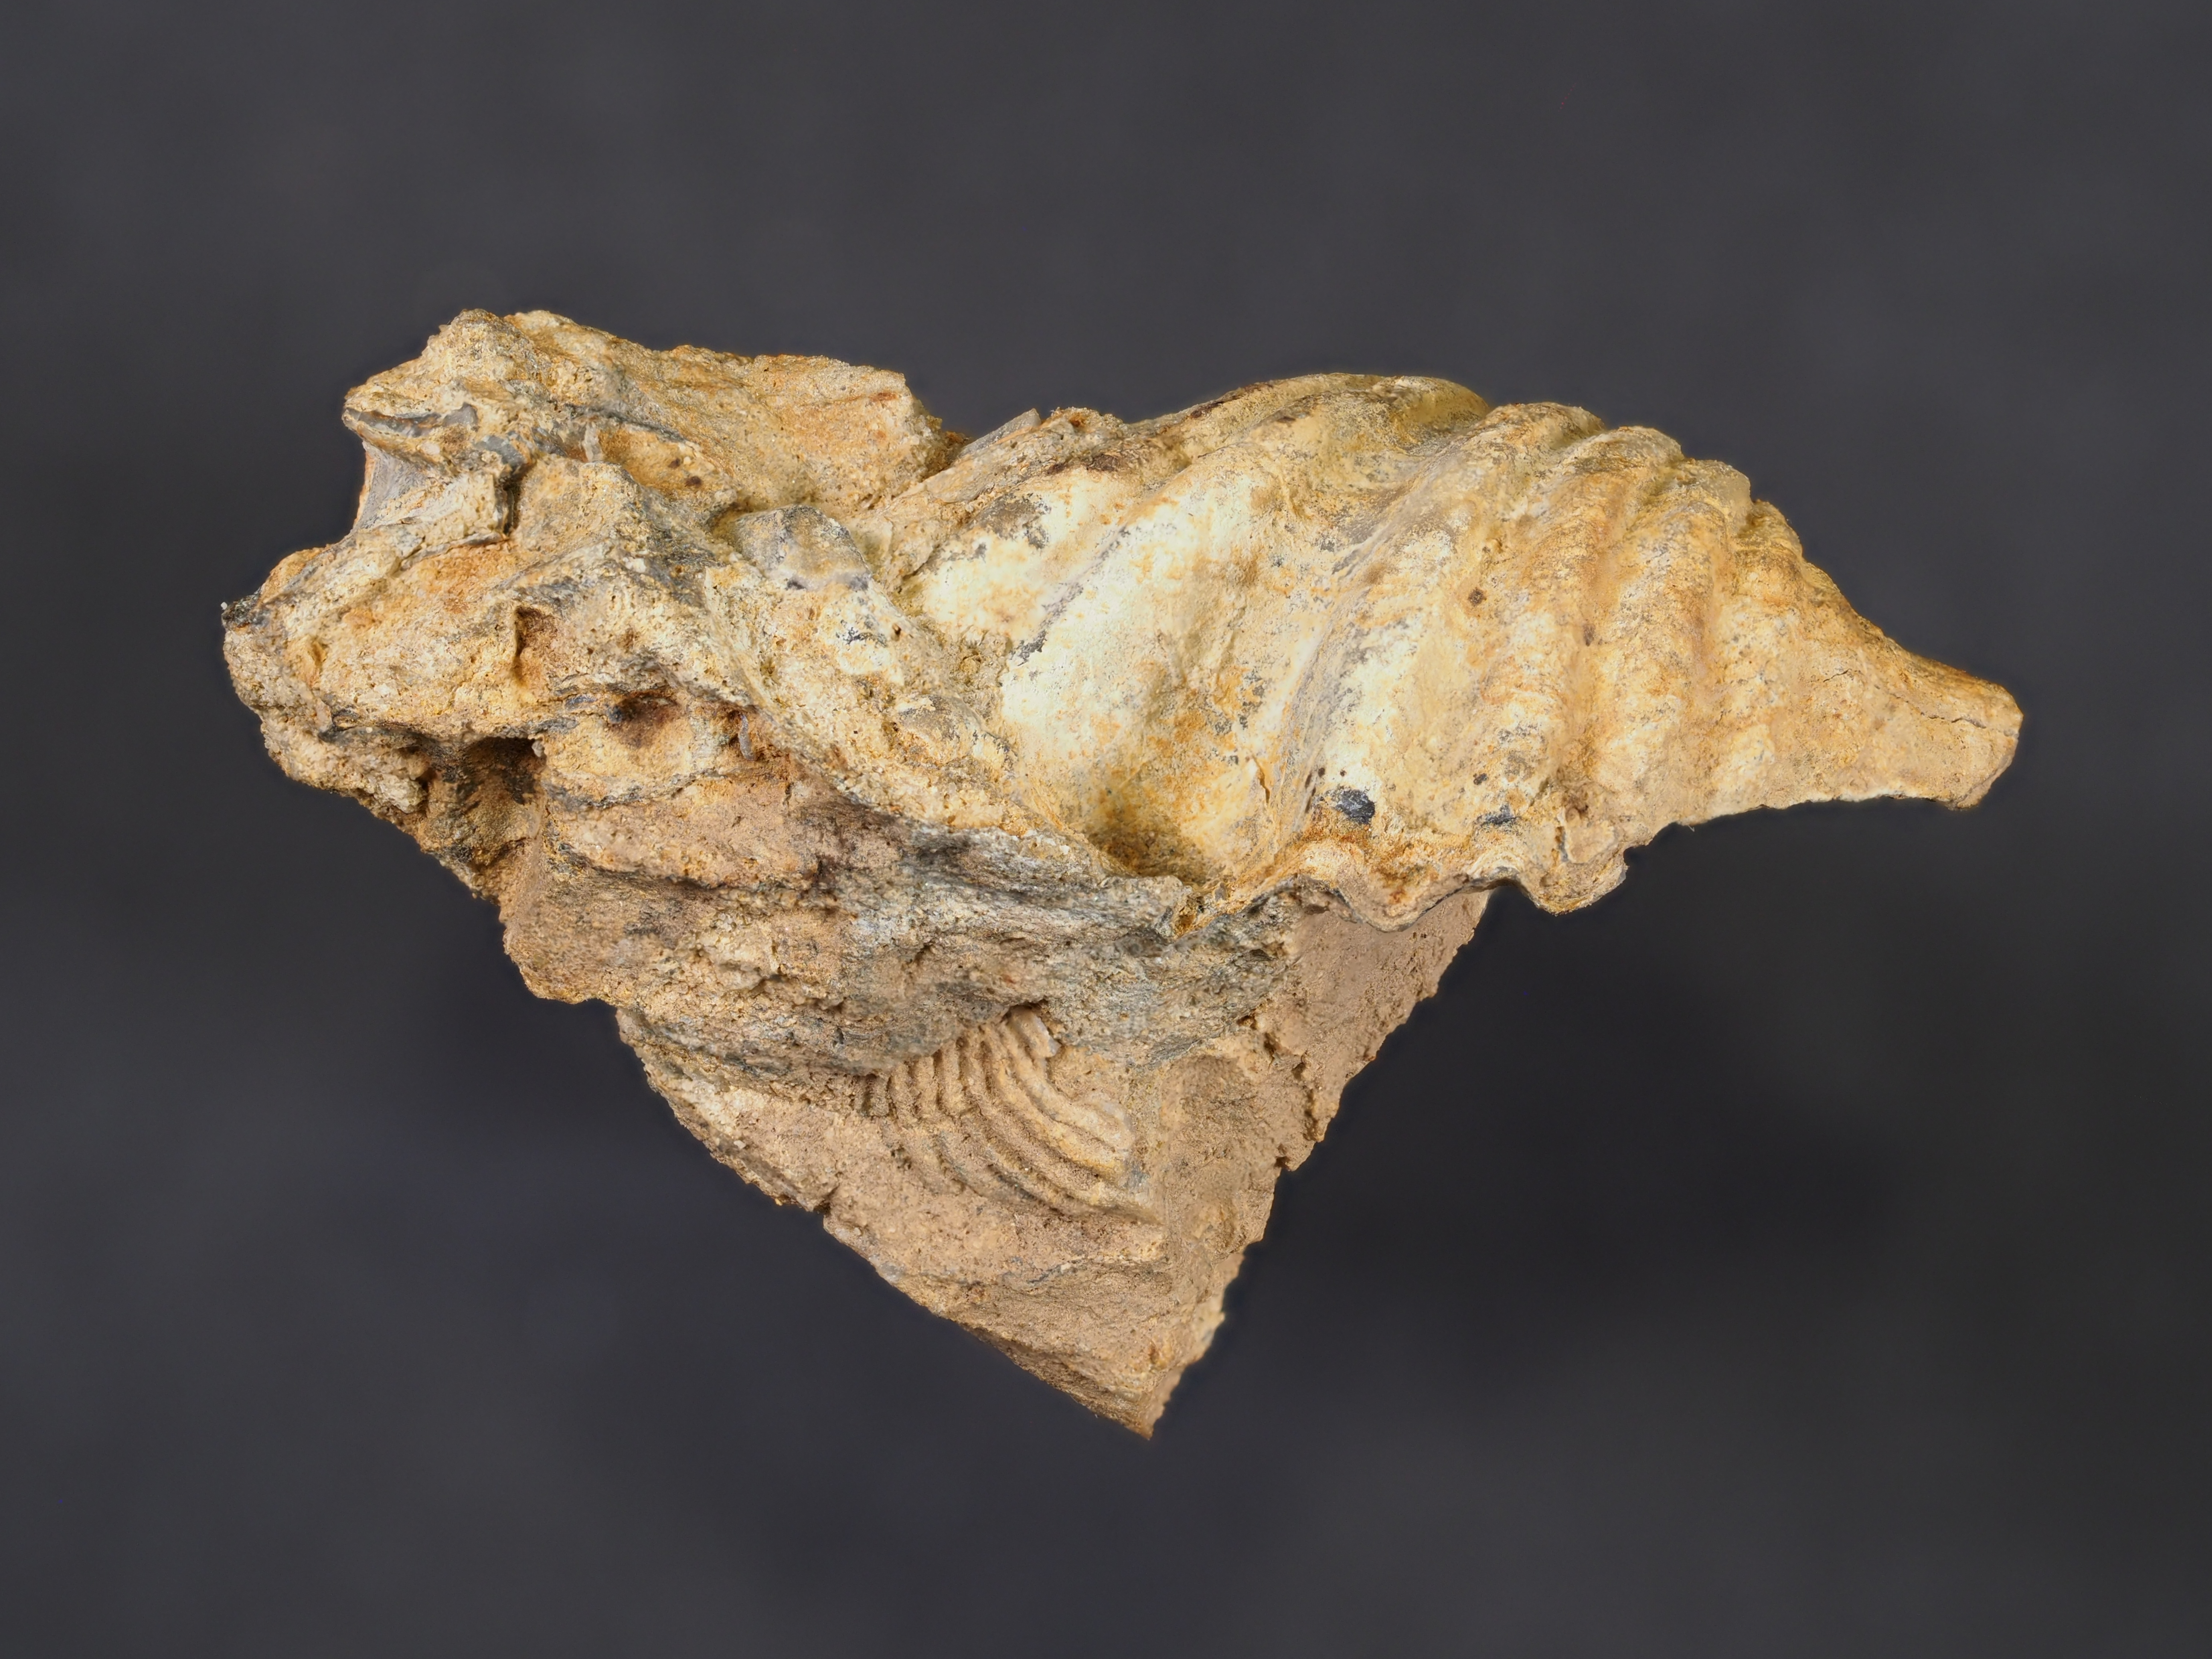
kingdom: Animalia
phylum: Brachiopoda
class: Rhynchonellata
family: Hysterolitidae
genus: Arduspirifer
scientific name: Arduspirifer Spirifer arduennensis
